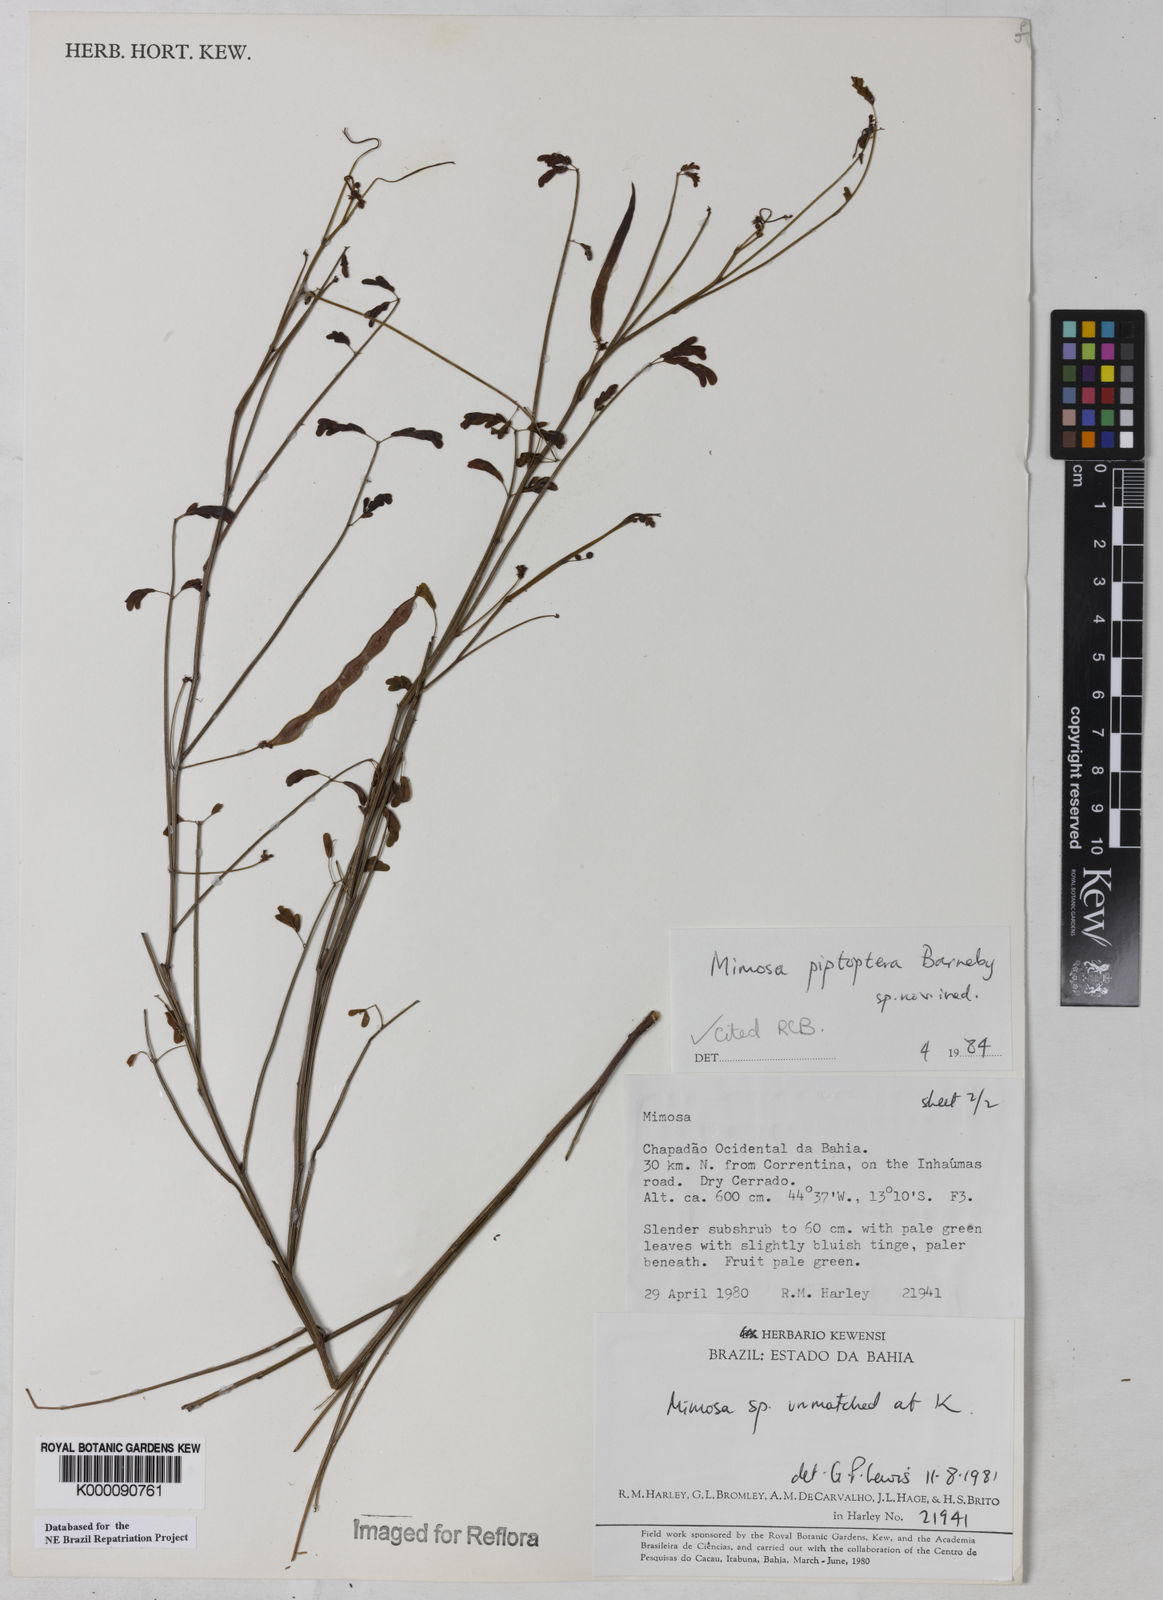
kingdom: Plantae
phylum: Tracheophyta
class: Magnoliopsida
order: Fabales
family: Fabaceae
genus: Mimosa
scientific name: Mimosa piptoptera
